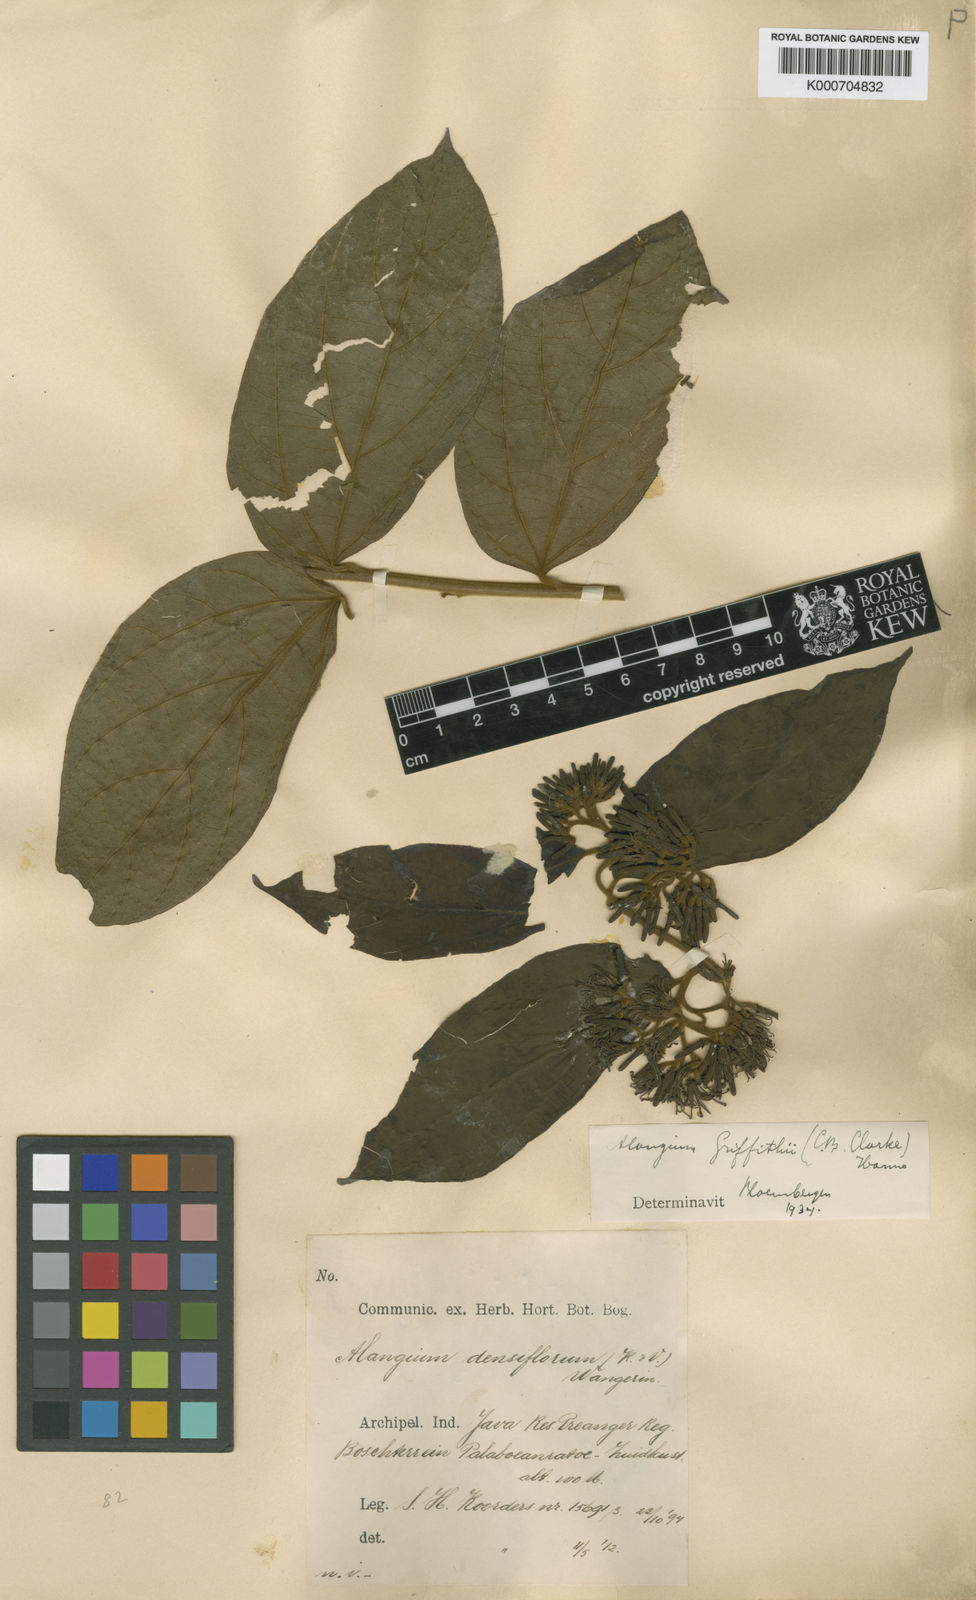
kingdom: Plantae
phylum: Tracheophyta
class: Magnoliopsida
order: Cornales
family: Cornaceae
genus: Alangium
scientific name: Alangium uniloculare
